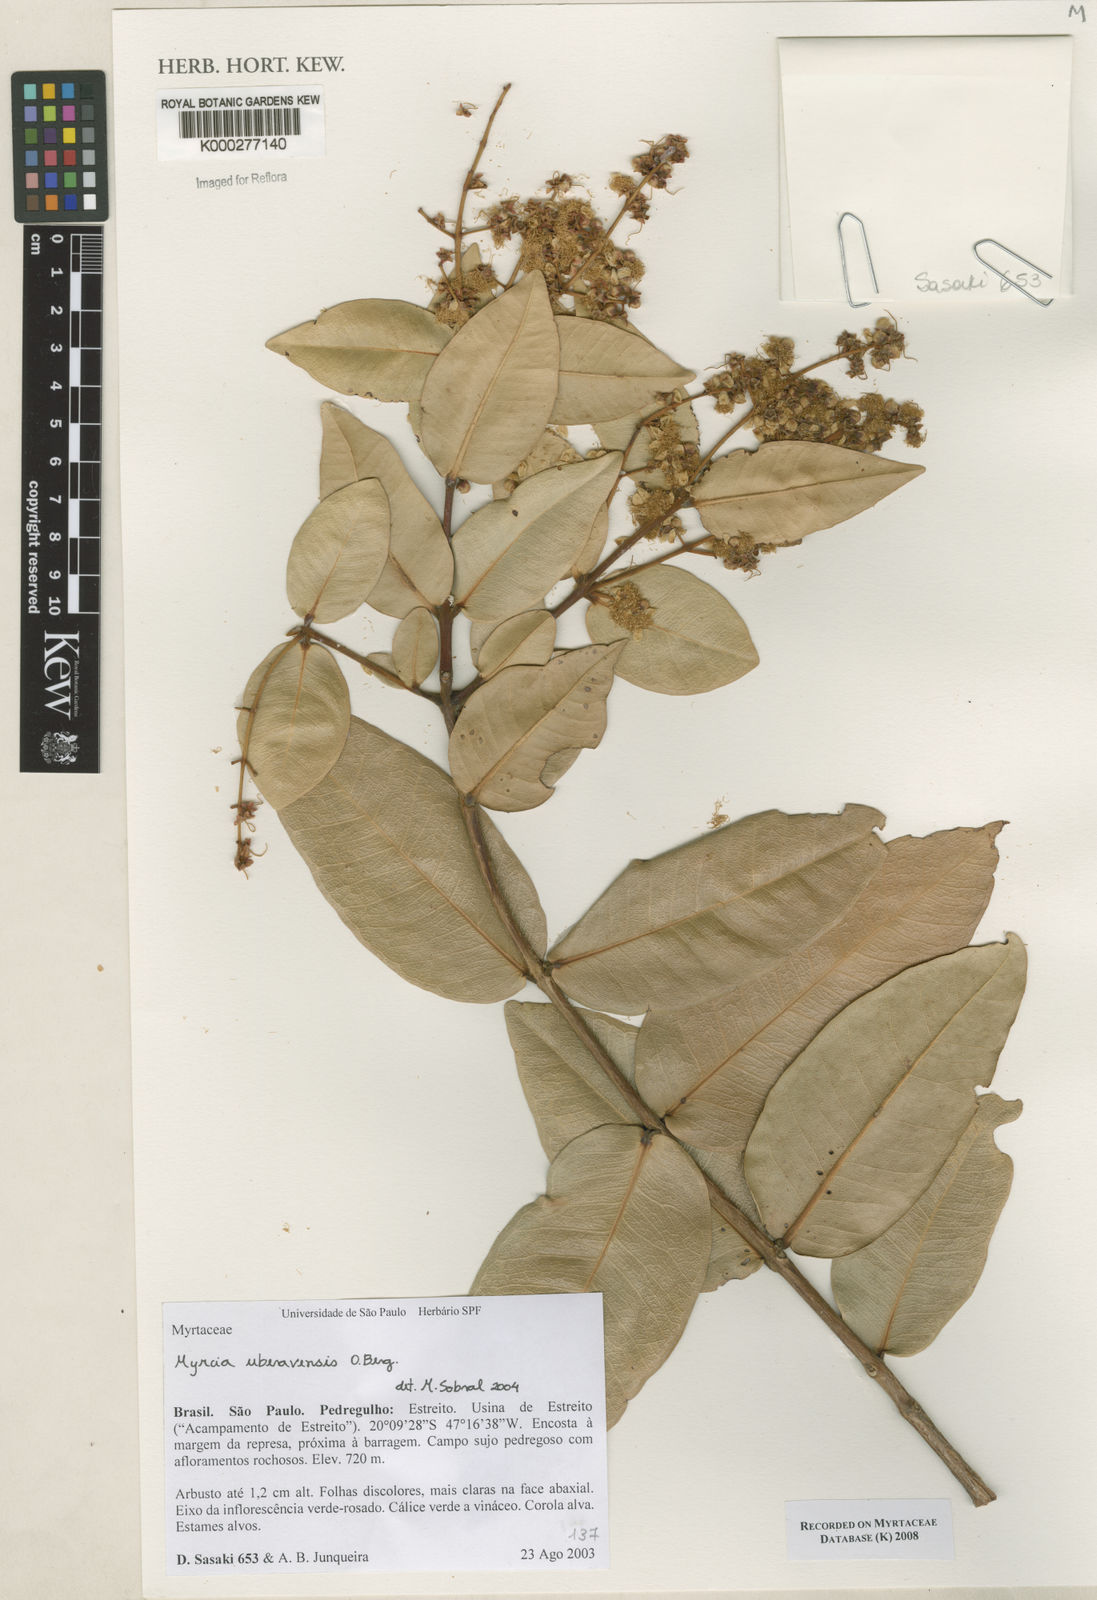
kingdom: Plantae
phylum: Tracheophyta
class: Magnoliopsida
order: Myrtales
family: Myrtaceae
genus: Myrcia
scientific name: Myrcia uberavensis
